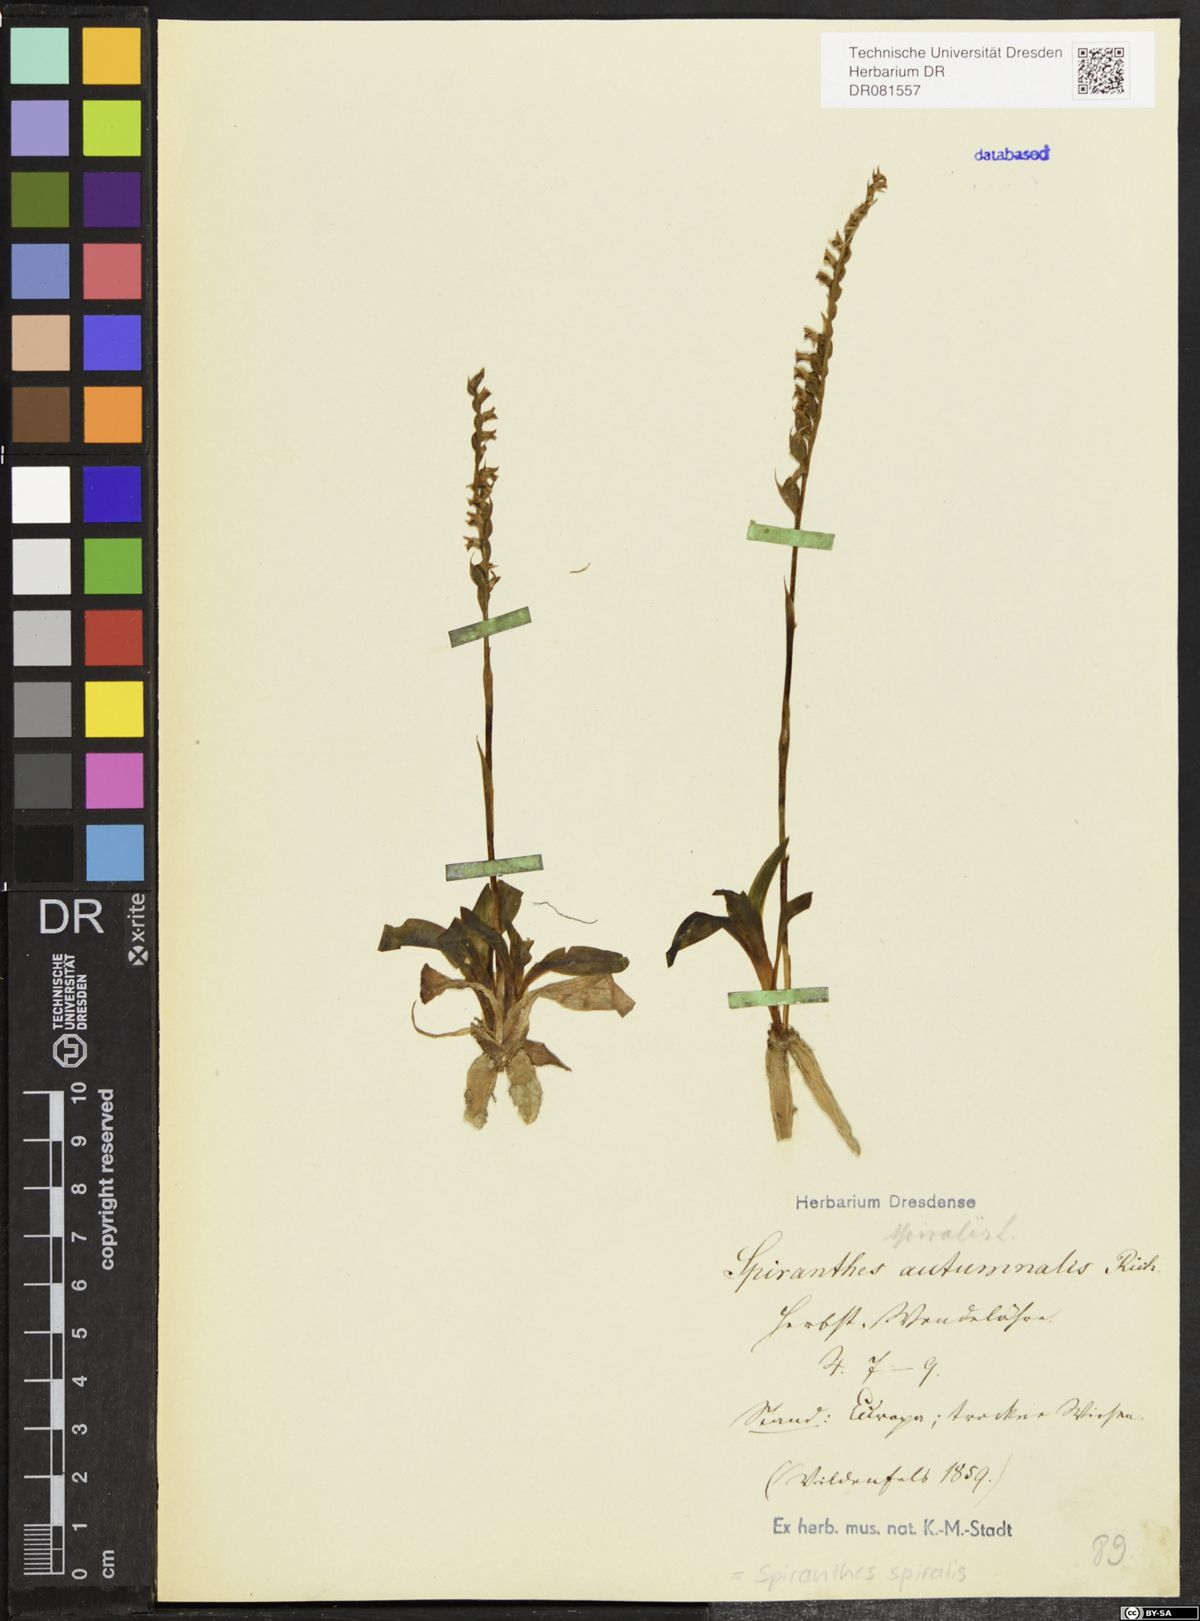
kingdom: Plantae
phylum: Tracheophyta
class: Liliopsida
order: Asparagales
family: Orchidaceae
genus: Spiranthes
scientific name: Spiranthes spiralis
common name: Autumn lady's-tresses
